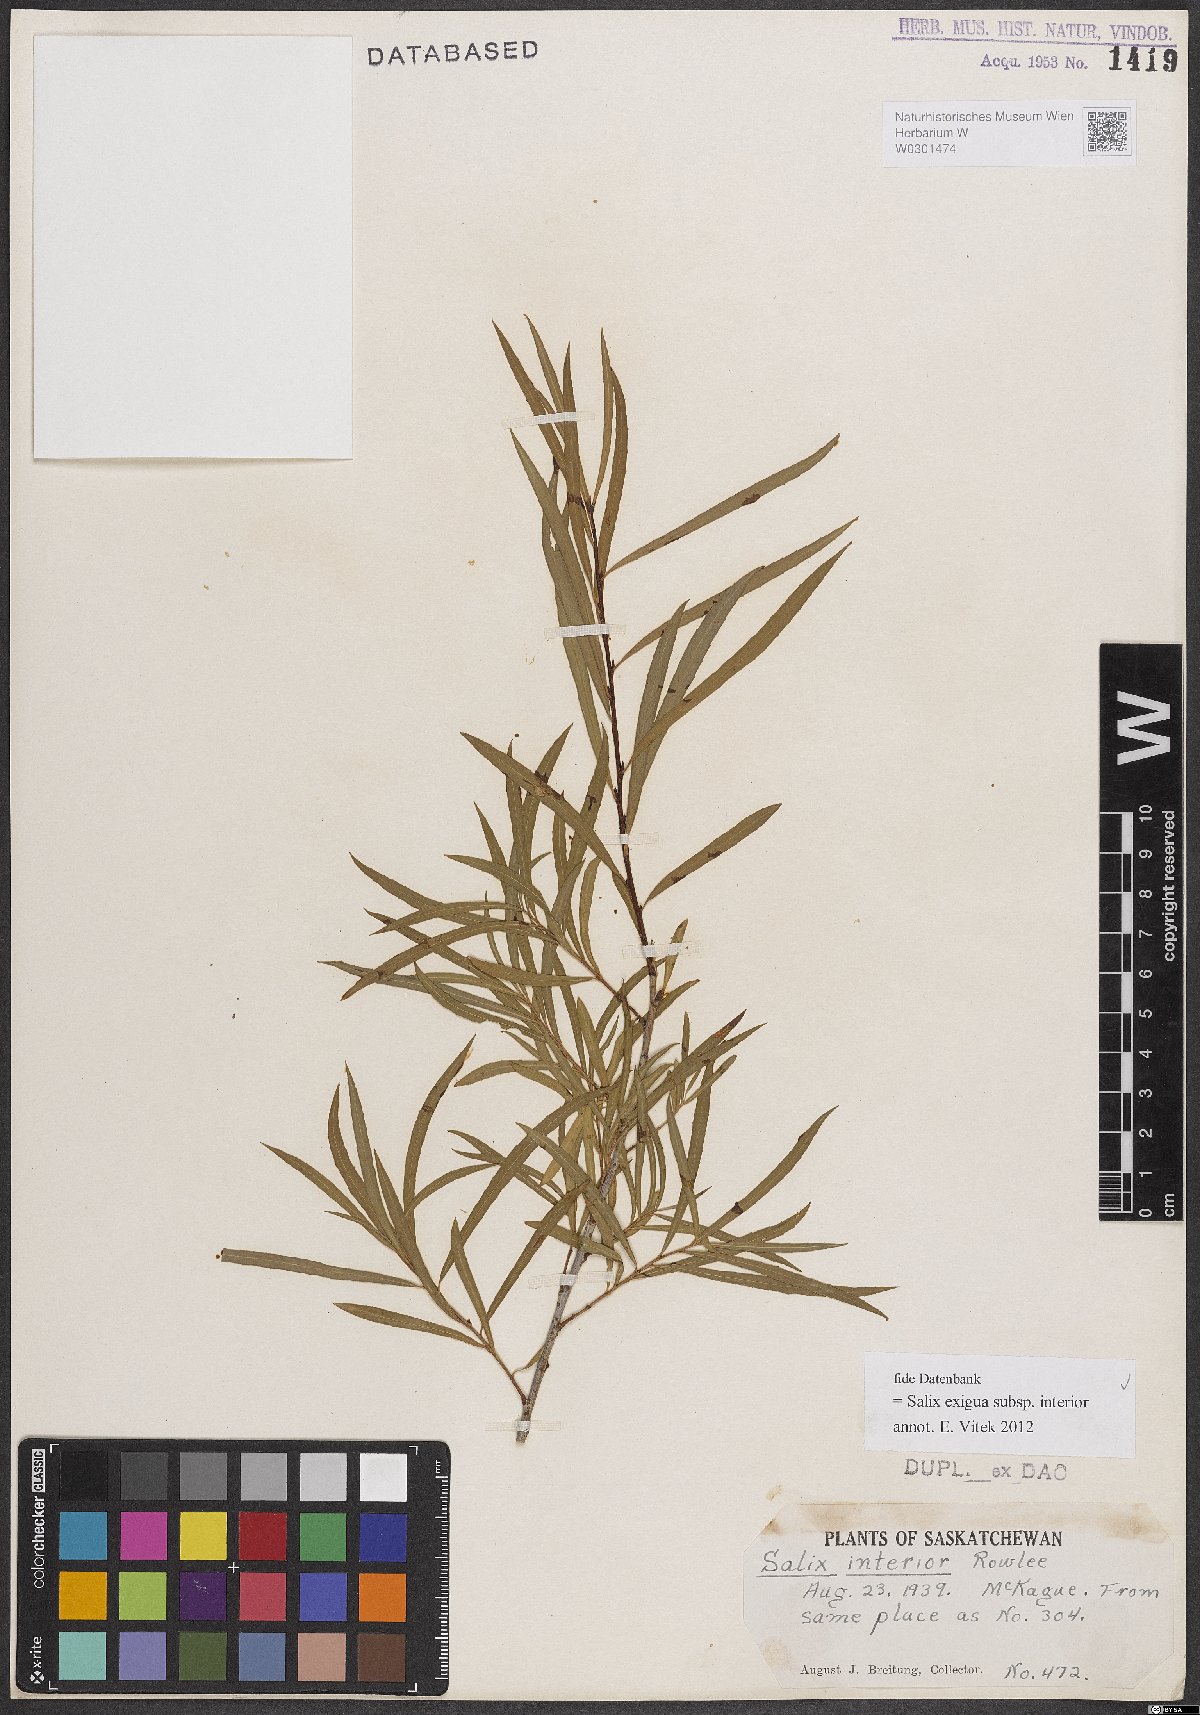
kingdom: Plantae
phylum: Tracheophyta
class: Magnoliopsida
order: Malpighiales
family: Salicaceae
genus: Salix
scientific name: Salix interior
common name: Sandbar willow
